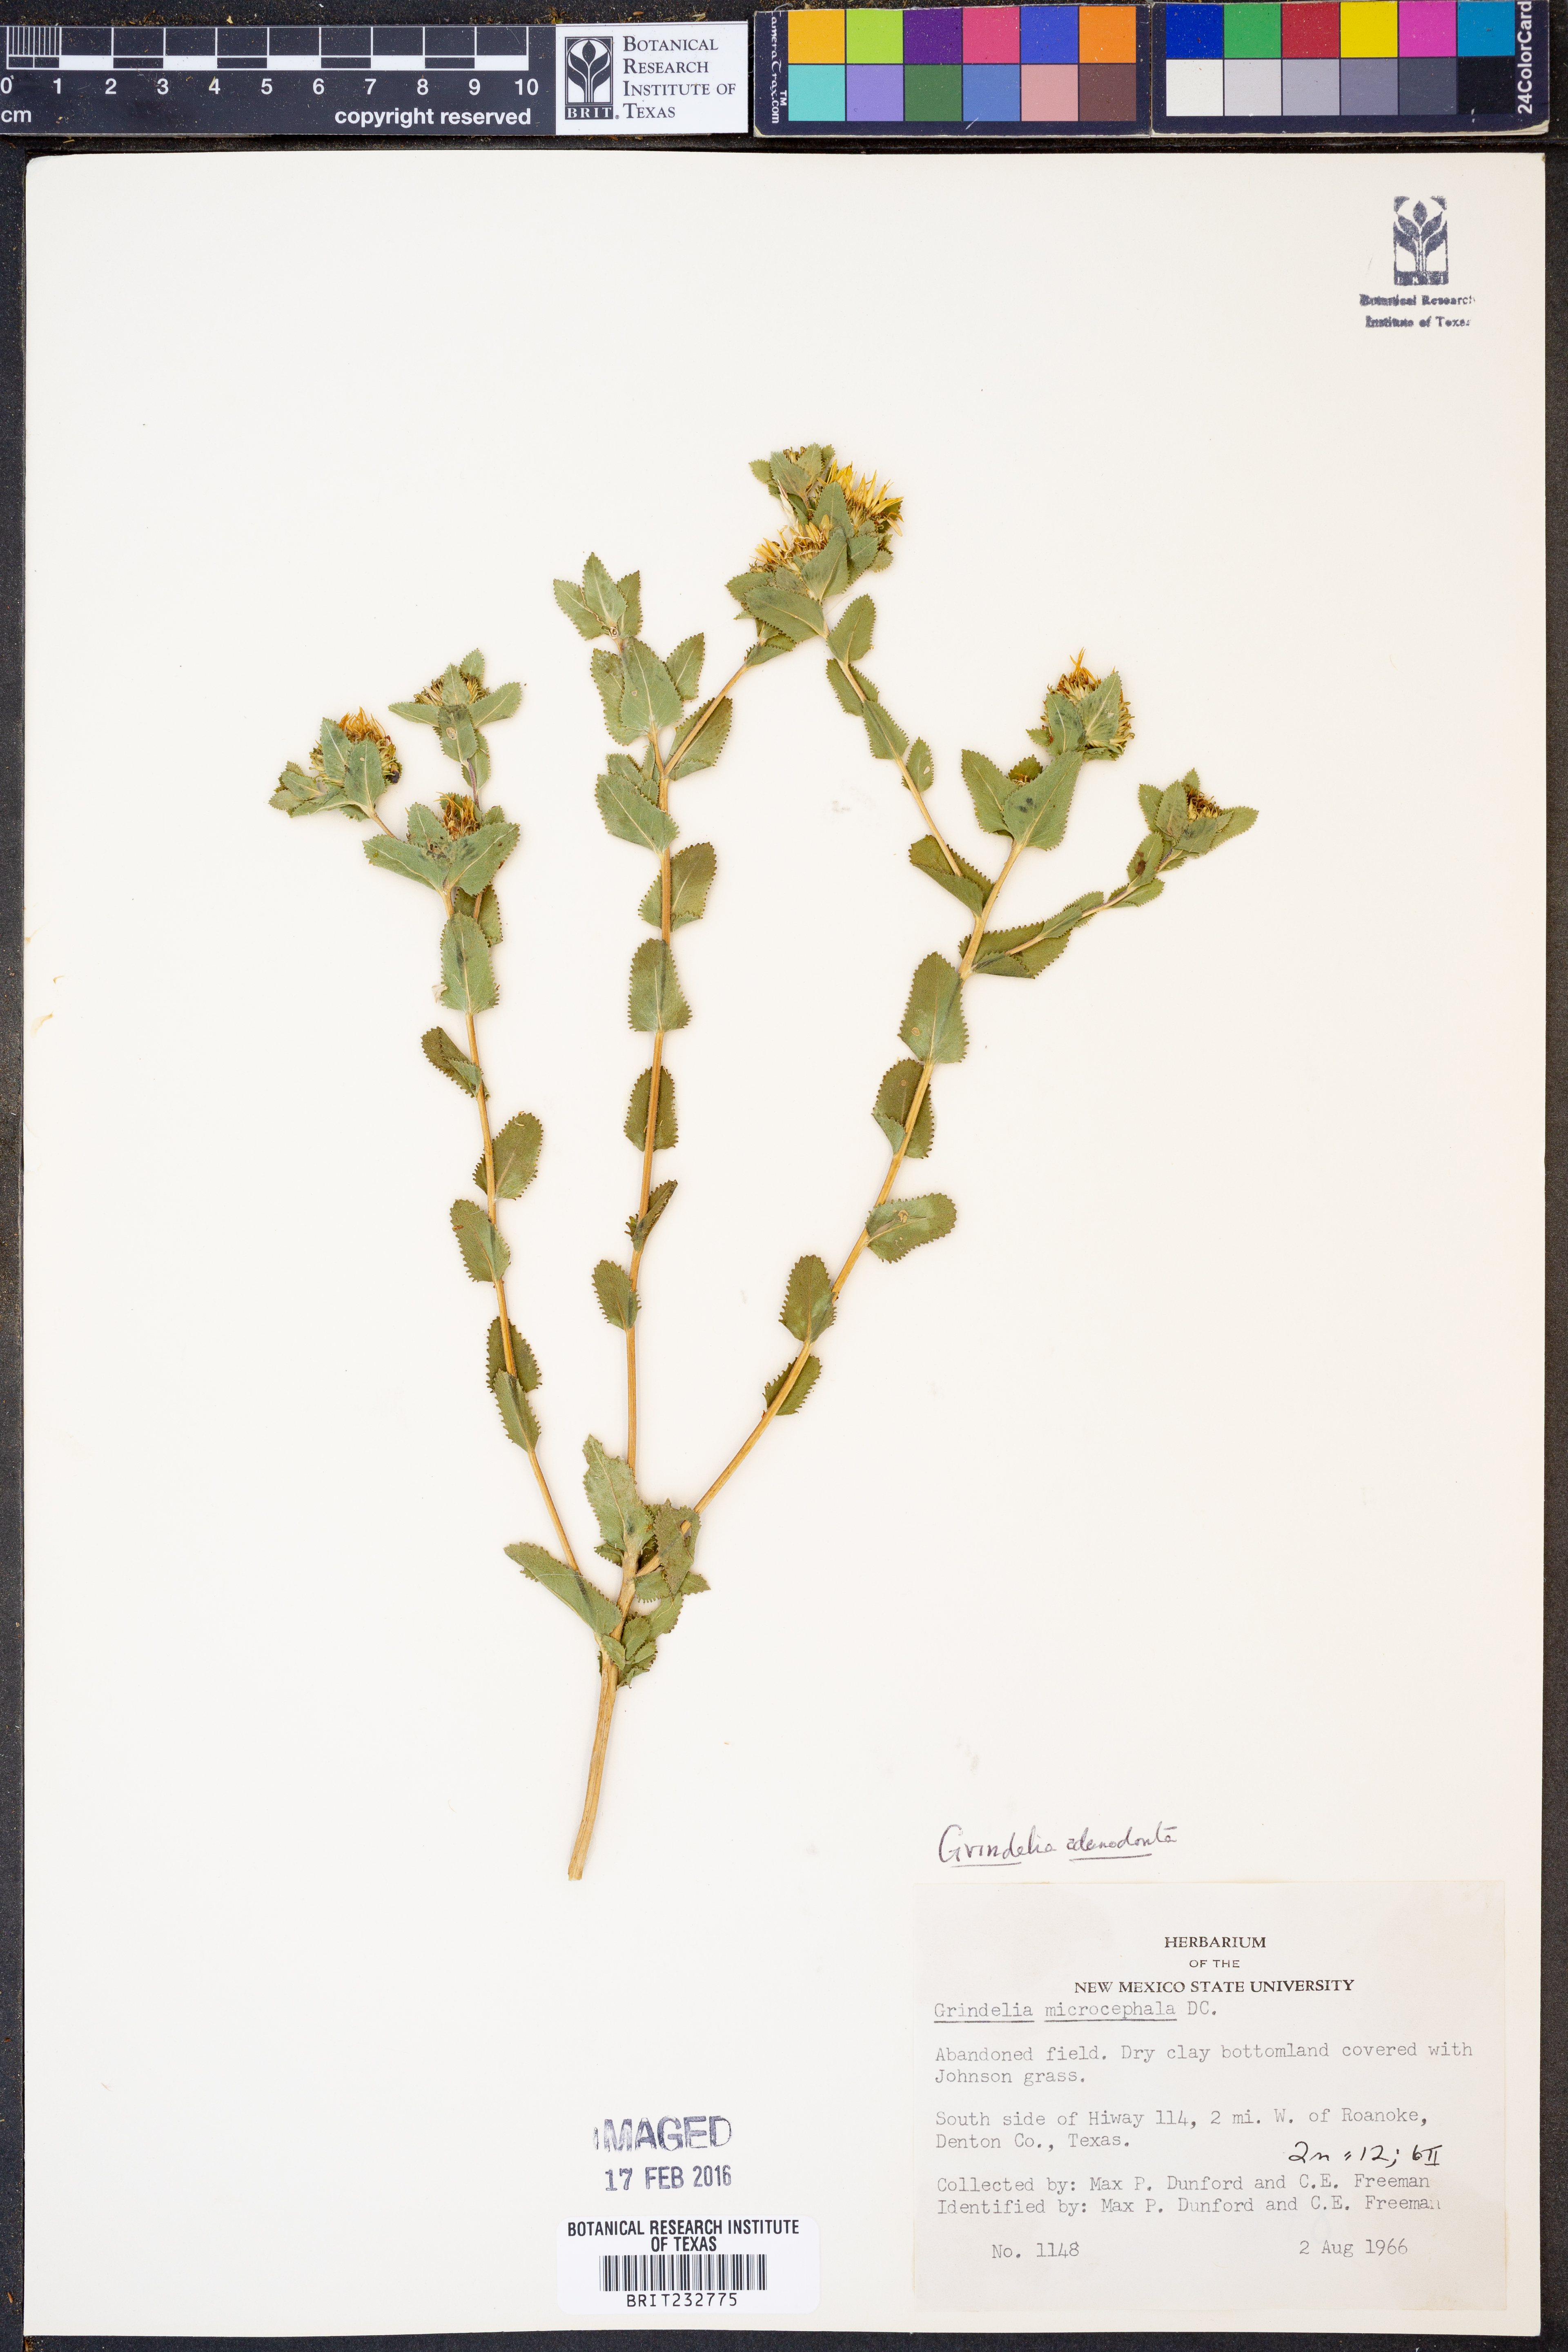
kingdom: Plantae
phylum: Tracheophyta
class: Magnoliopsida
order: Asterales
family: Asteraceae
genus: Grindelia
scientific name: Grindelia adenodonta
